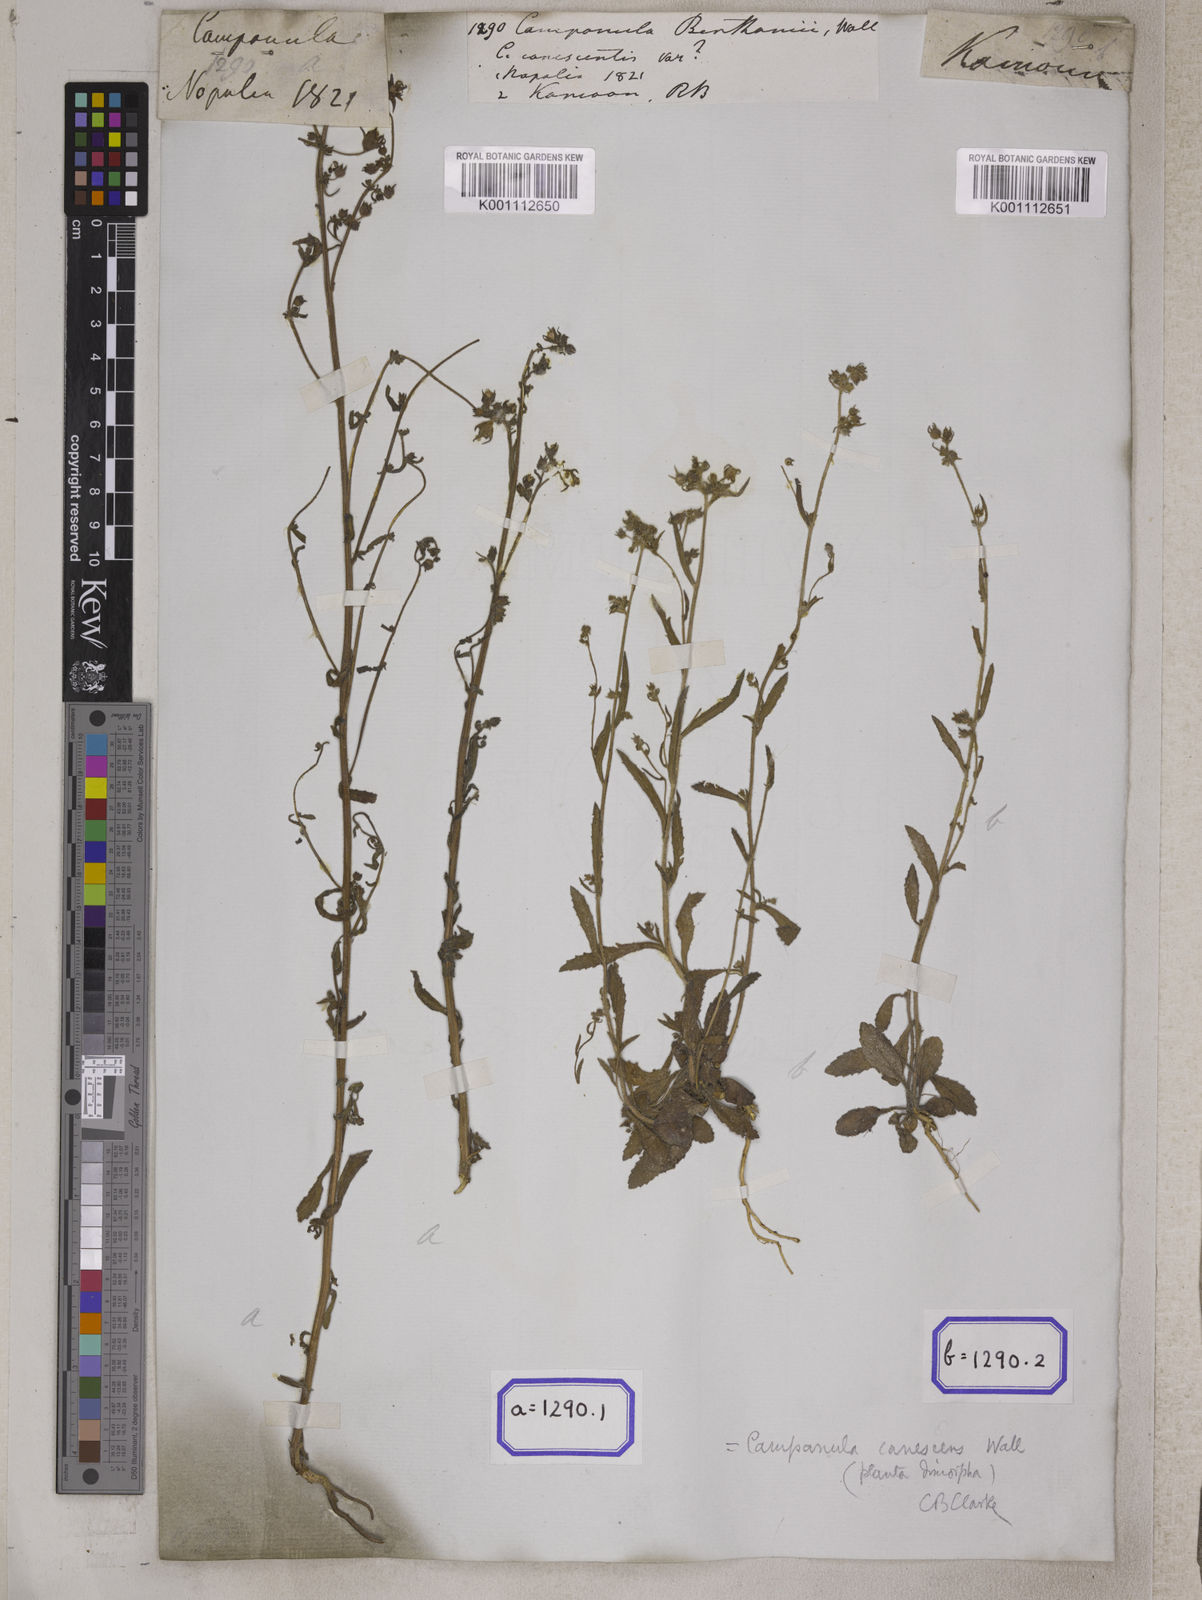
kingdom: Plantae
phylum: Tracheophyta
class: Magnoliopsida
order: Asterales
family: Campanulaceae
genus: Campanula
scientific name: Campanula
